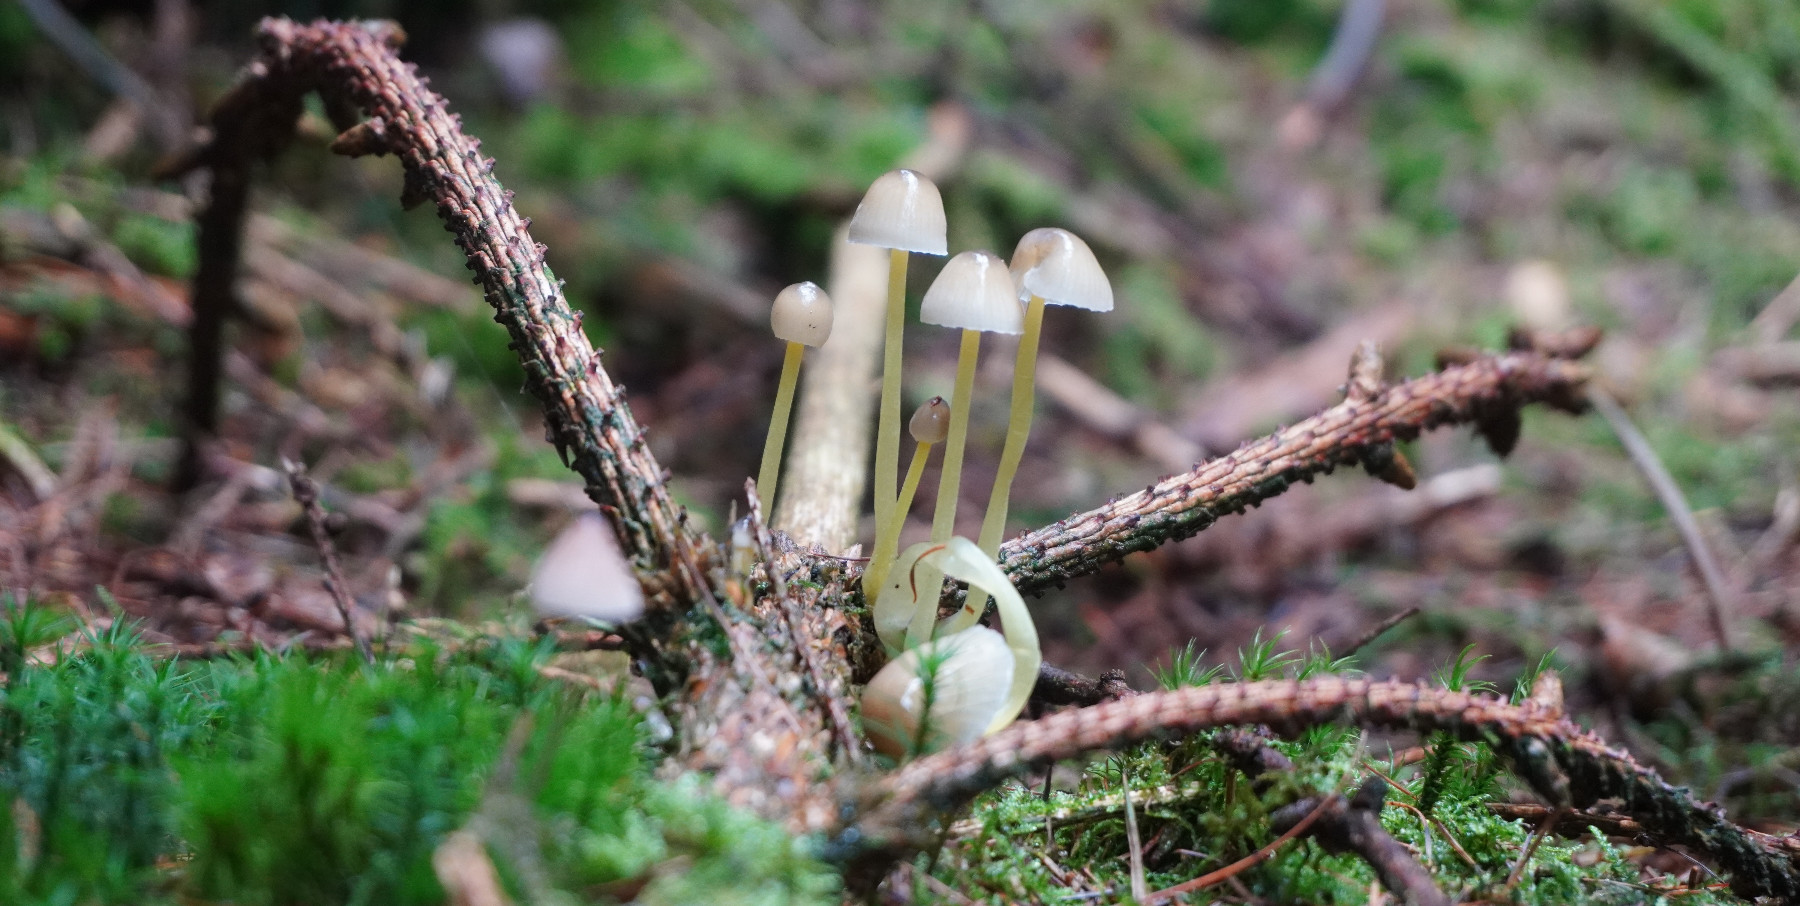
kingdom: Fungi
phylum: Basidiomycota
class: Agaricomycetes
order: Agaricales
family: Mycenaceae
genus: Mycena
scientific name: Mycena epipterygia
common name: gulstokket huesvamp
